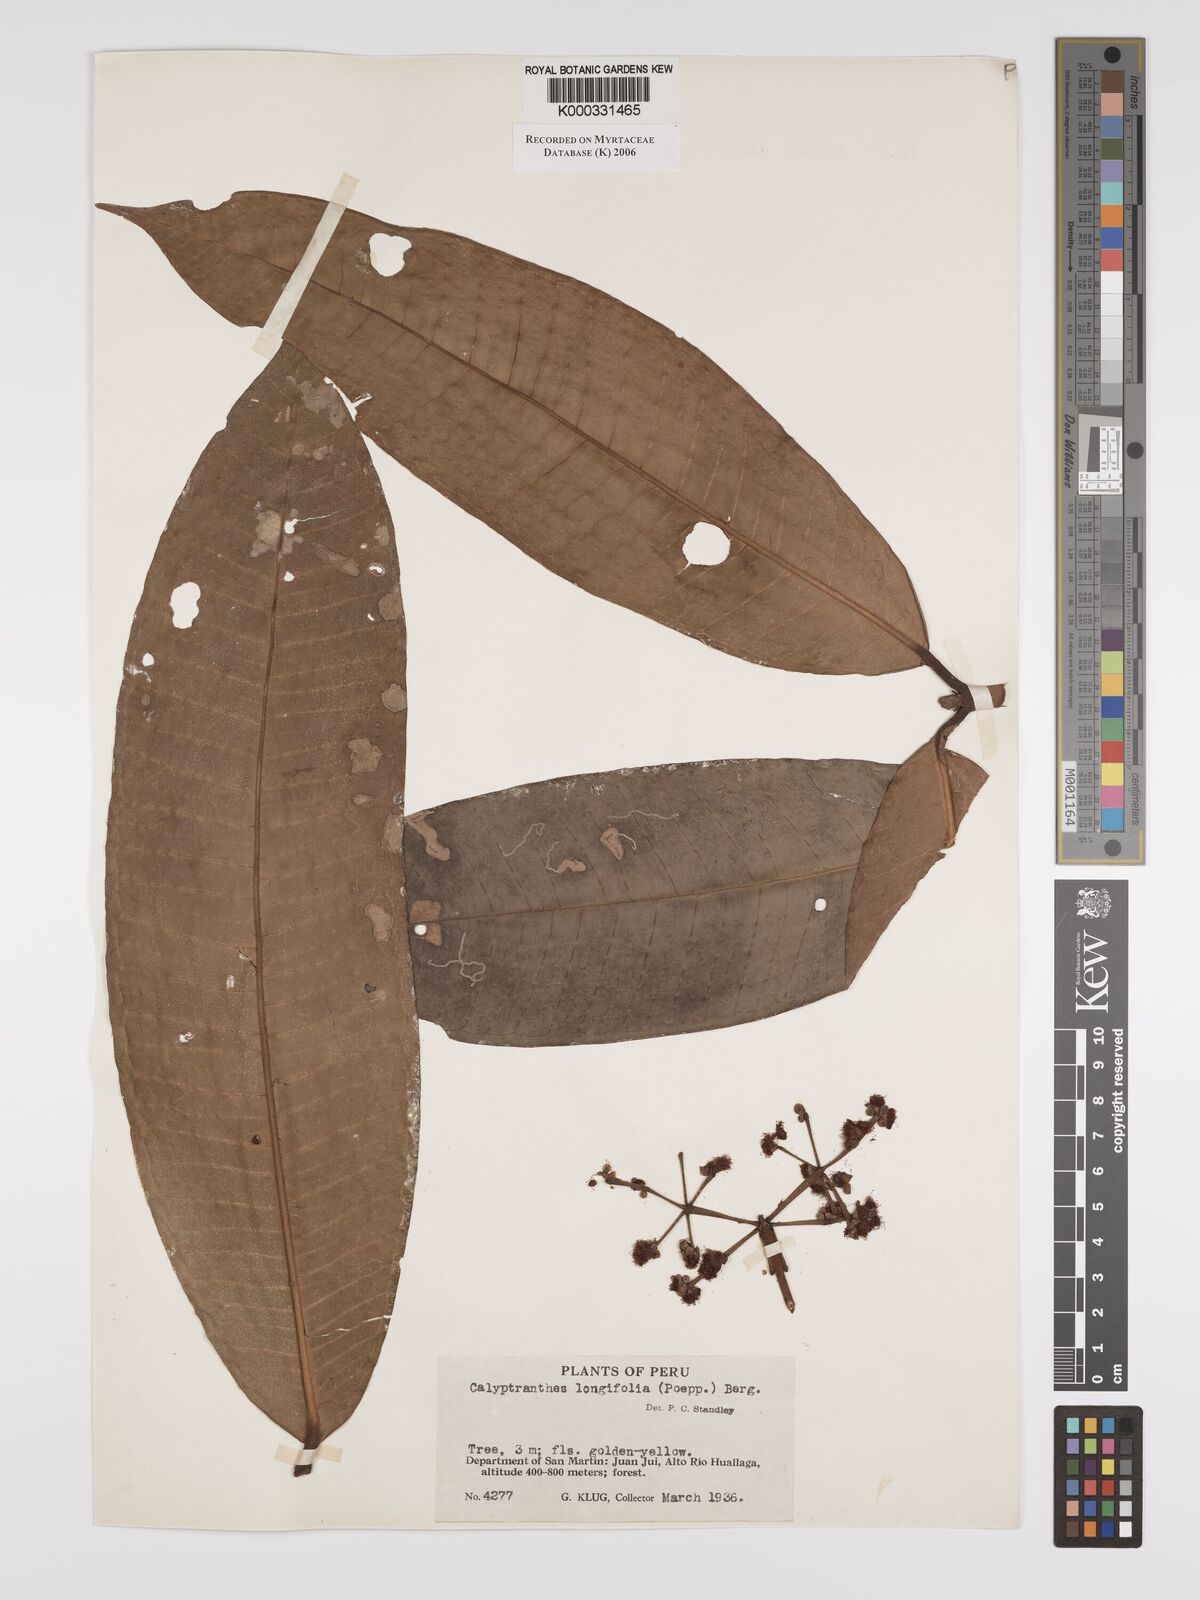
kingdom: Plantae
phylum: Tracheophyta
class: Magnoliopsida
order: Myrtales
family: Myrtaceae
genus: Myrcia
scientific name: Myrcia telephylla
